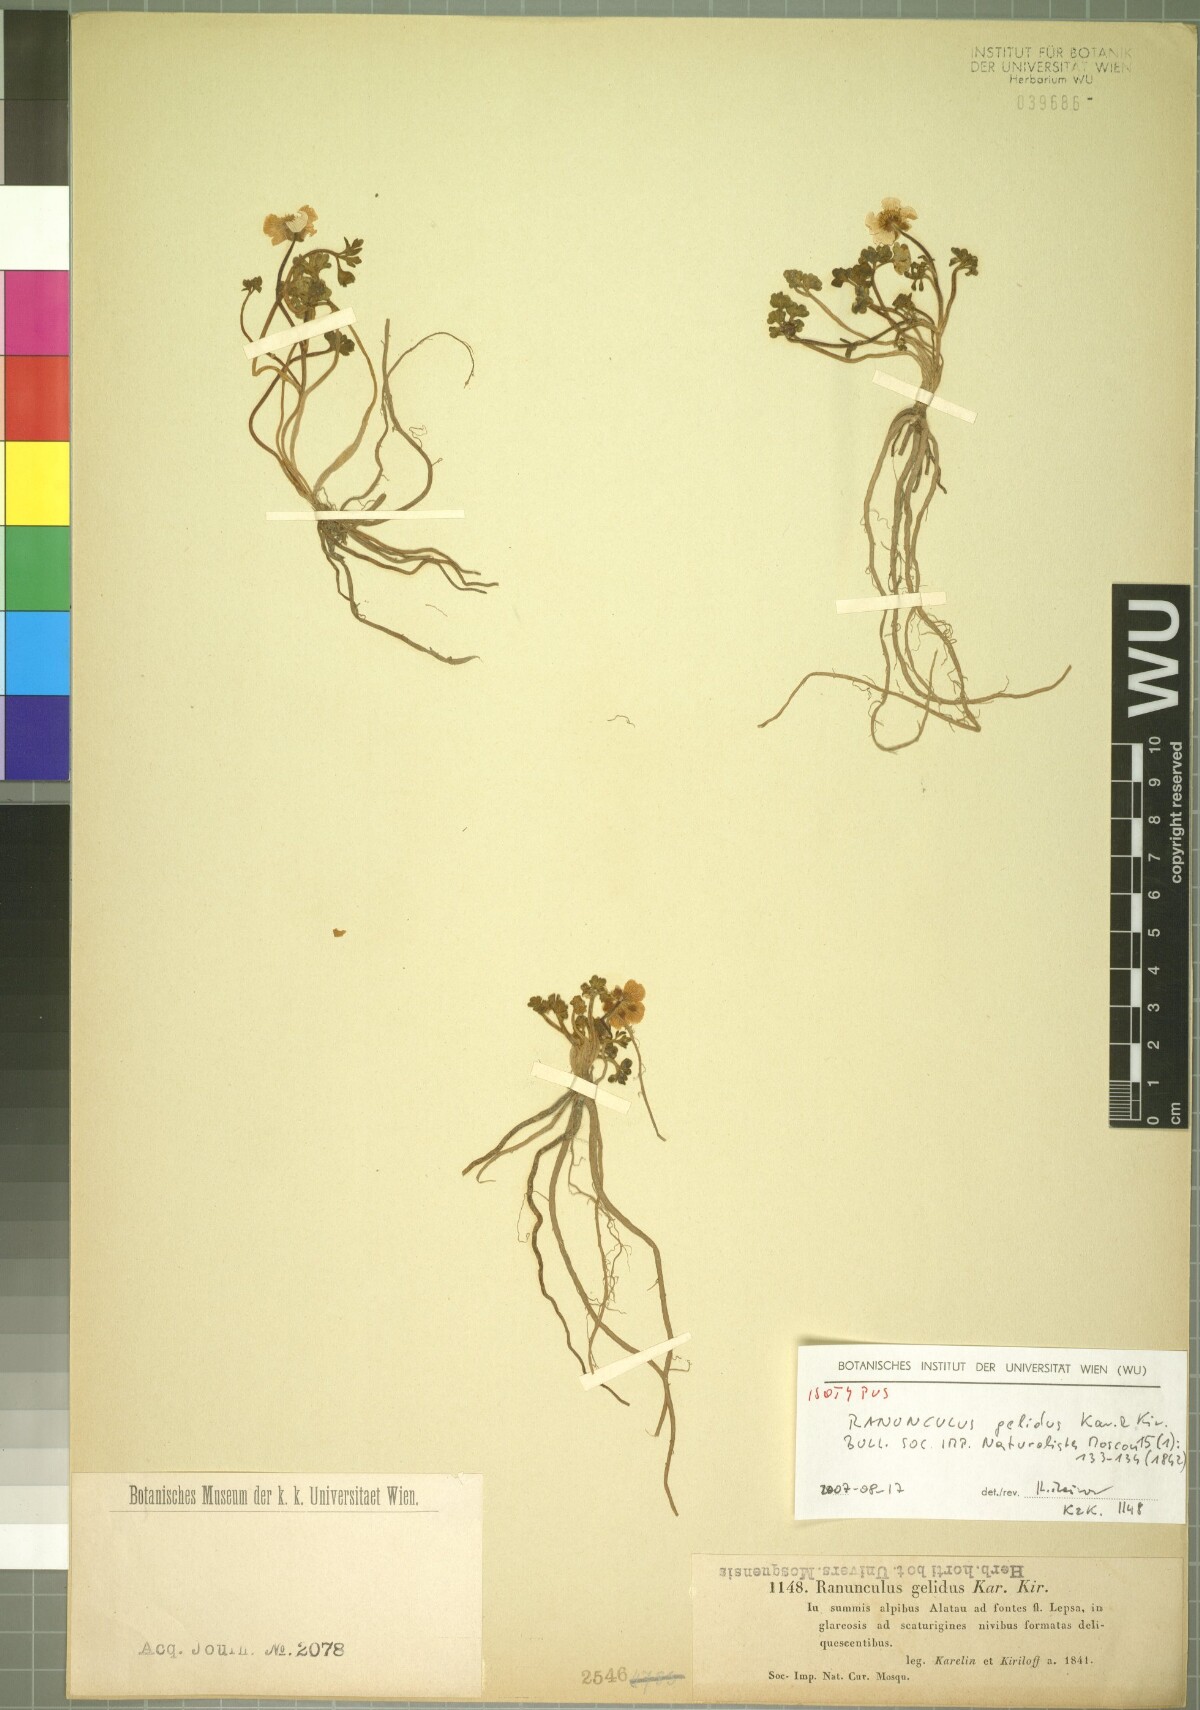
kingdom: Plantae
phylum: Tracheophyta
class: Magnoliopsida
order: Ranunculales
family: Ranunculaceae
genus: Ranunculus
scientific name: Ranunculus karelinii
